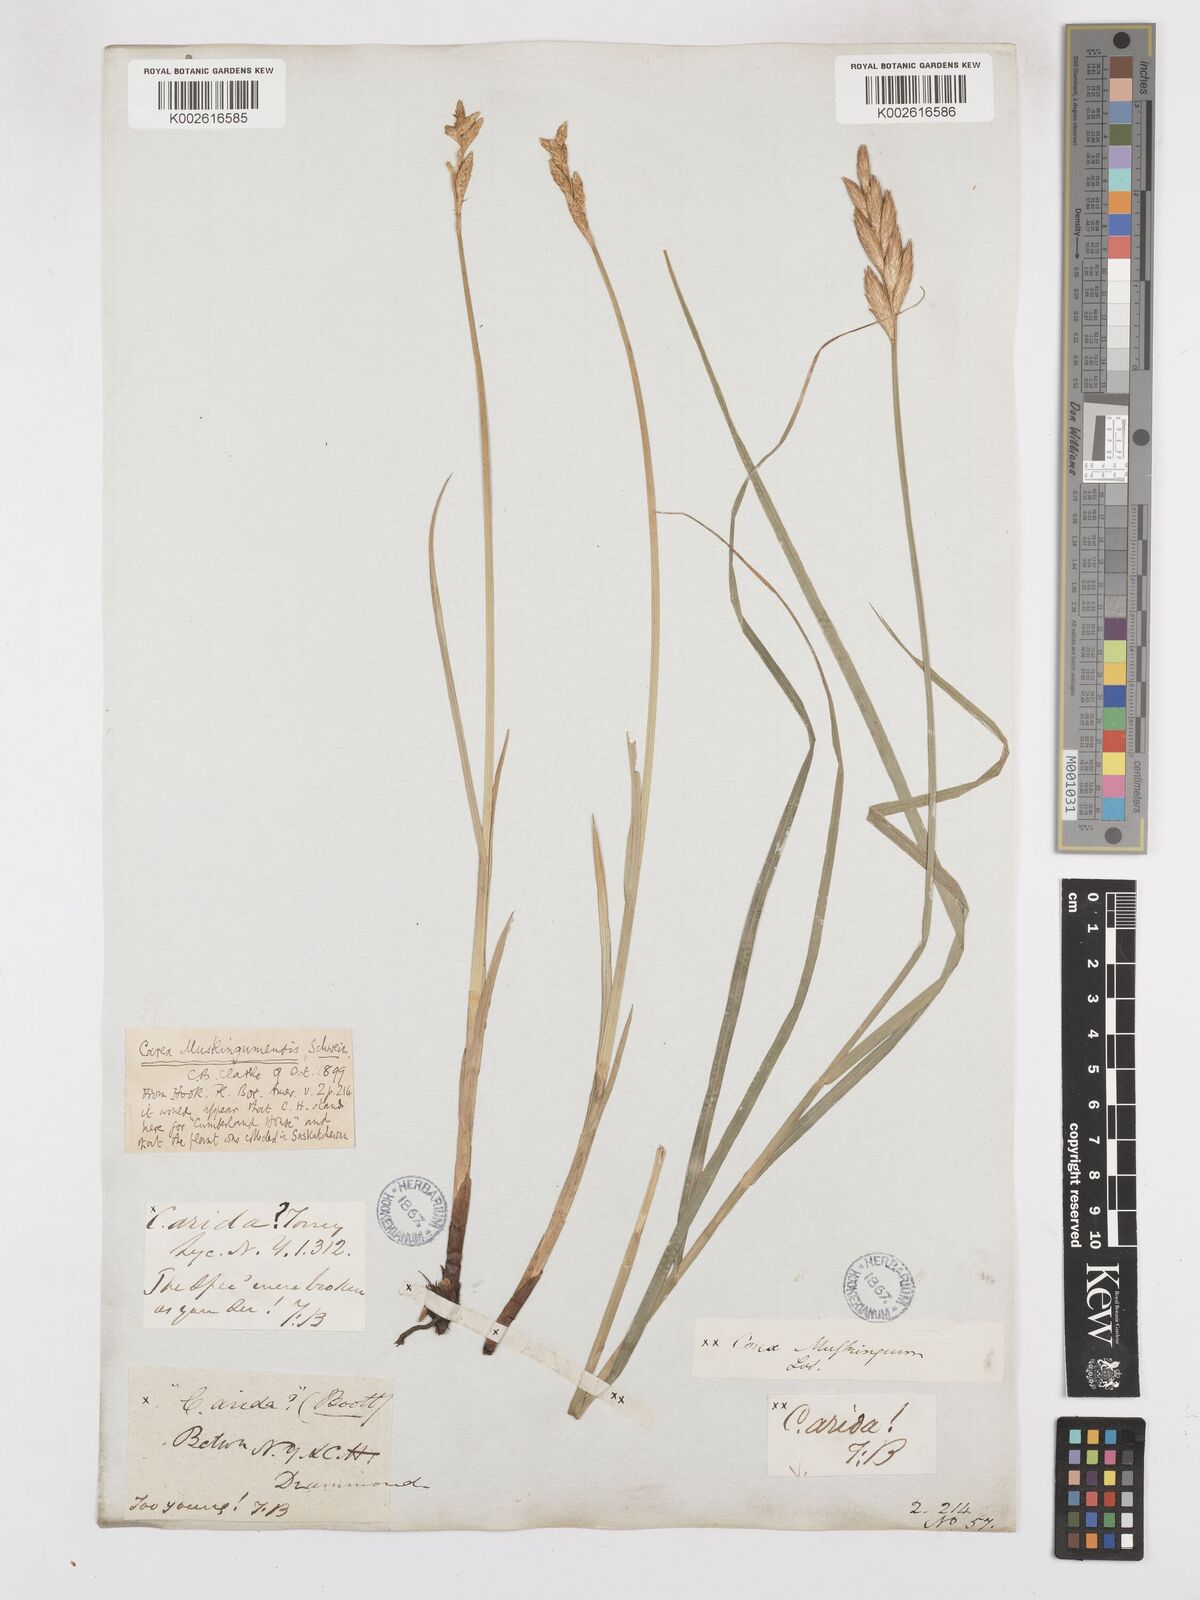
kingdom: Plantae
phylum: Tracheophyta
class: Liliopsida
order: Poales
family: Cyperaceae
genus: Carex
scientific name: Carex muskingumensis
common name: Muskingum sedge
